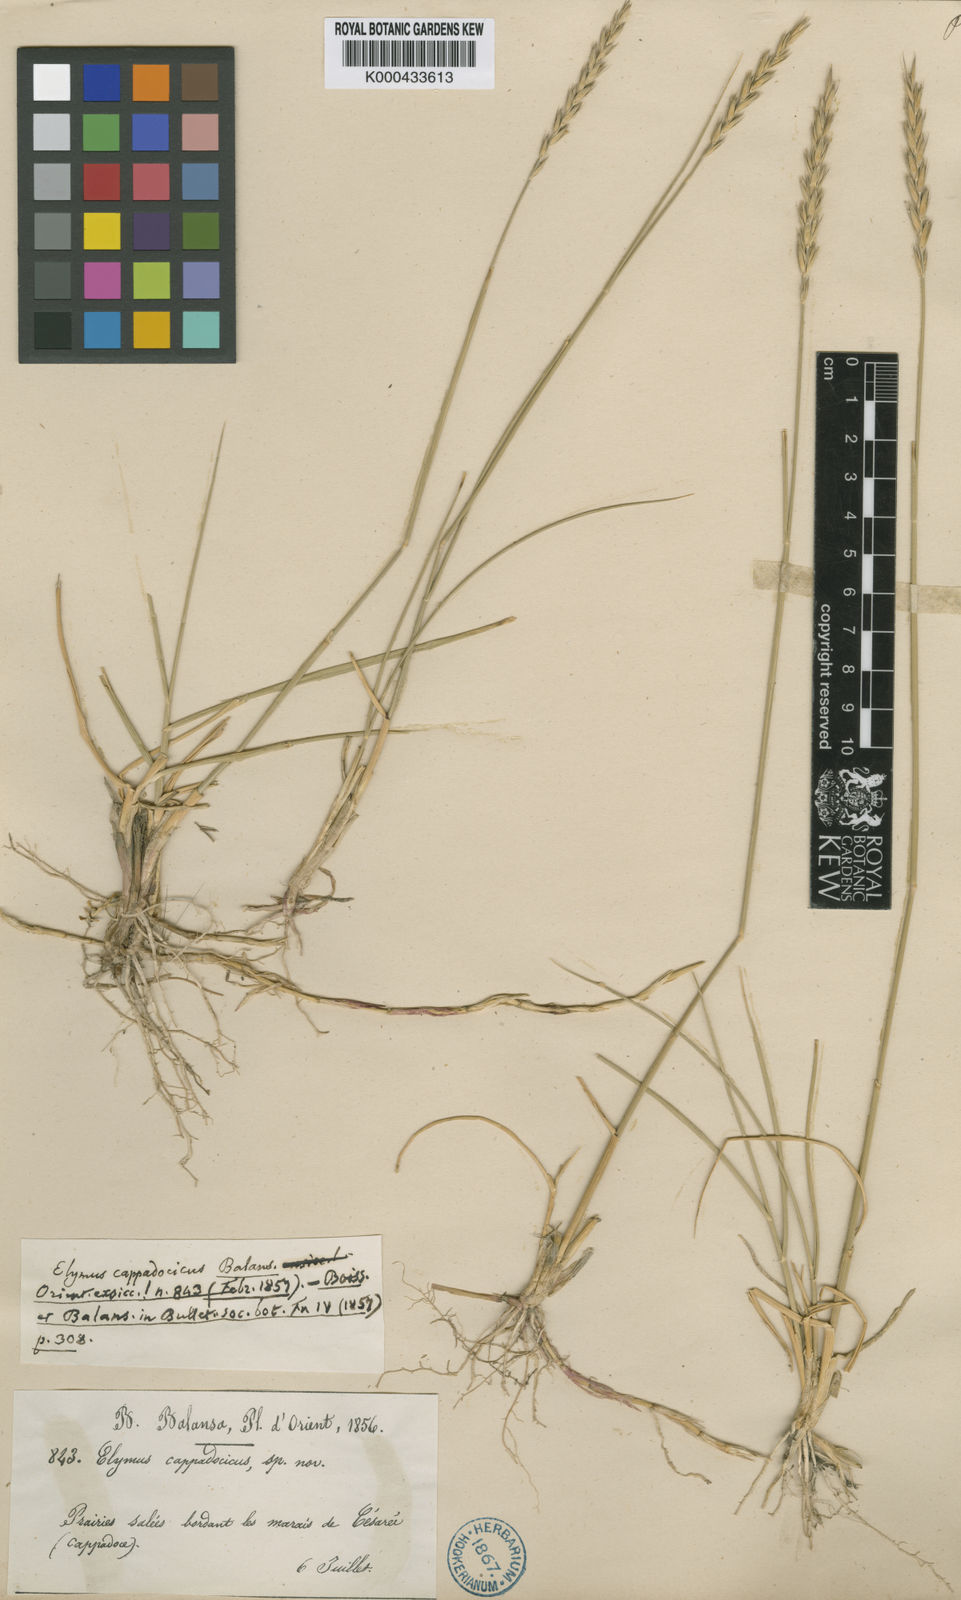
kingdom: Plantae
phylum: Tracheophyta
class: Liliopsida
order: Poales
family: Poaceae
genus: Leymus
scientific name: Leymus cappadocicus
